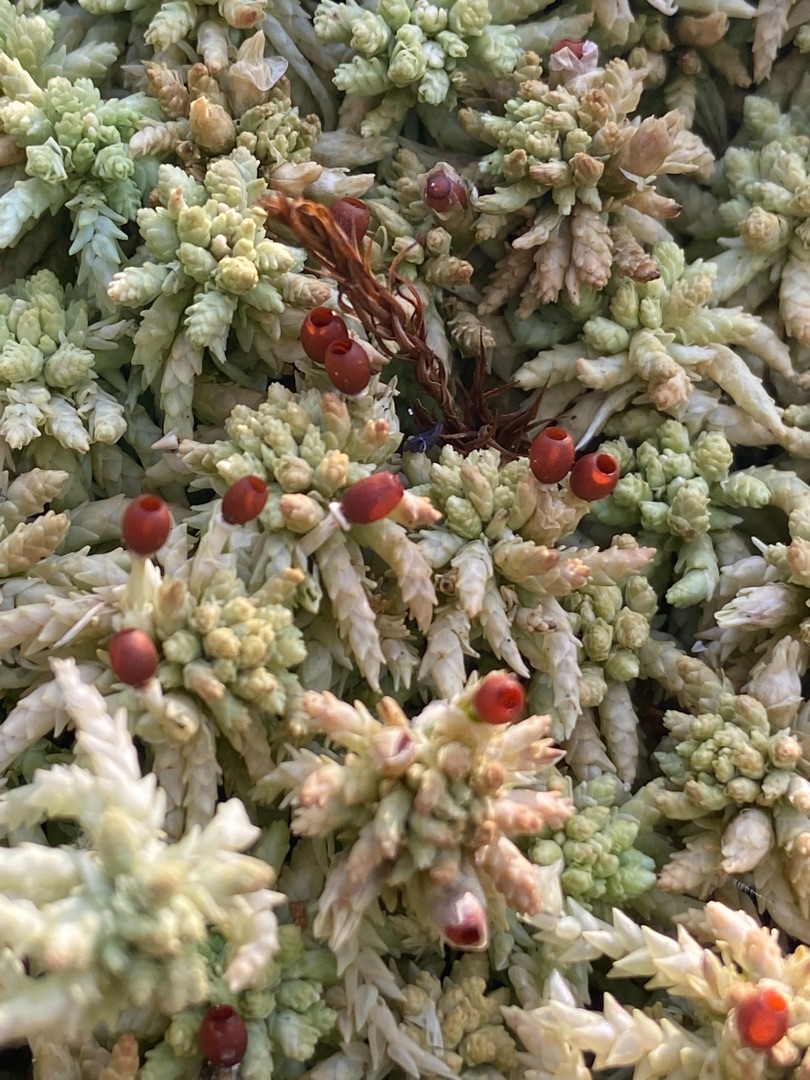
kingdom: Plantae
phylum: Bryophyta
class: Sphagnopsida
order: Sphagnales
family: Sphagnaceae
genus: Sphagnum
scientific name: Sphagnum palustre
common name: Almindelig tørvemos
